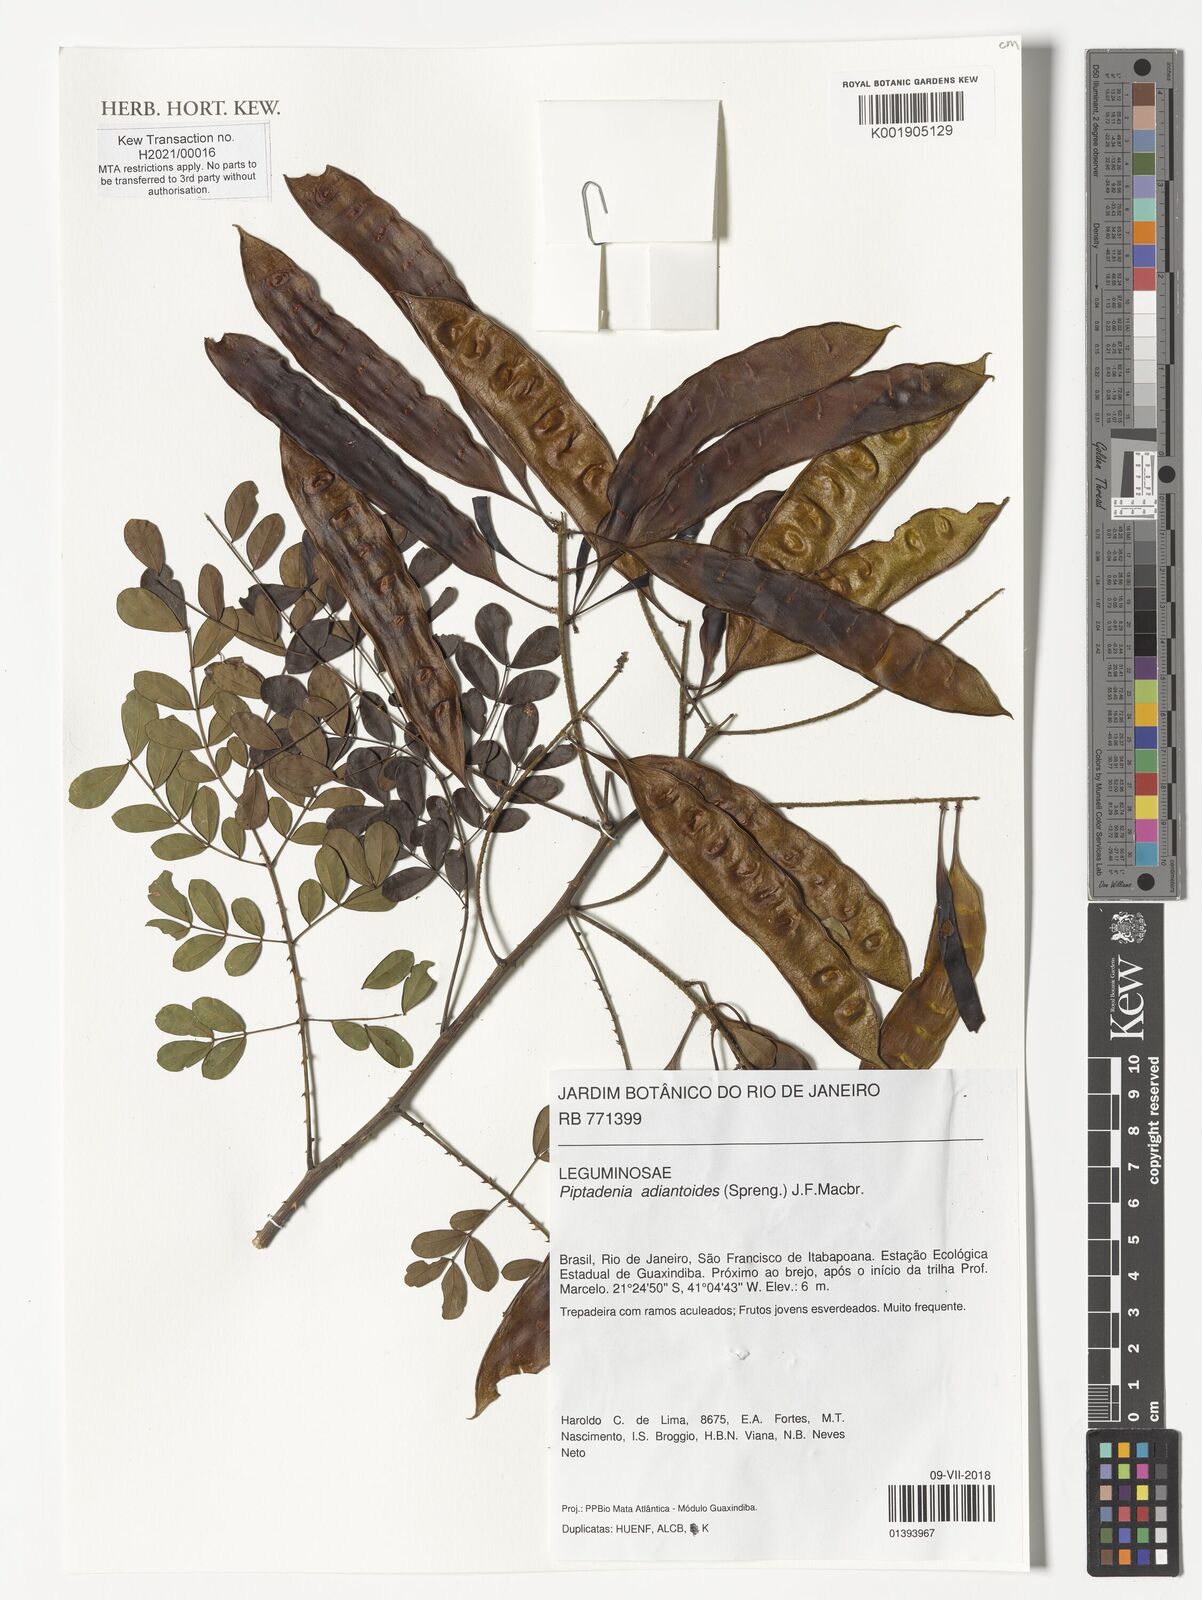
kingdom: Plantae
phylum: Tracheophyta
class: Magnoliopsida
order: Fabales
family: Fabaceae
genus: Piptadenia
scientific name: Piptadenia adiantoides
